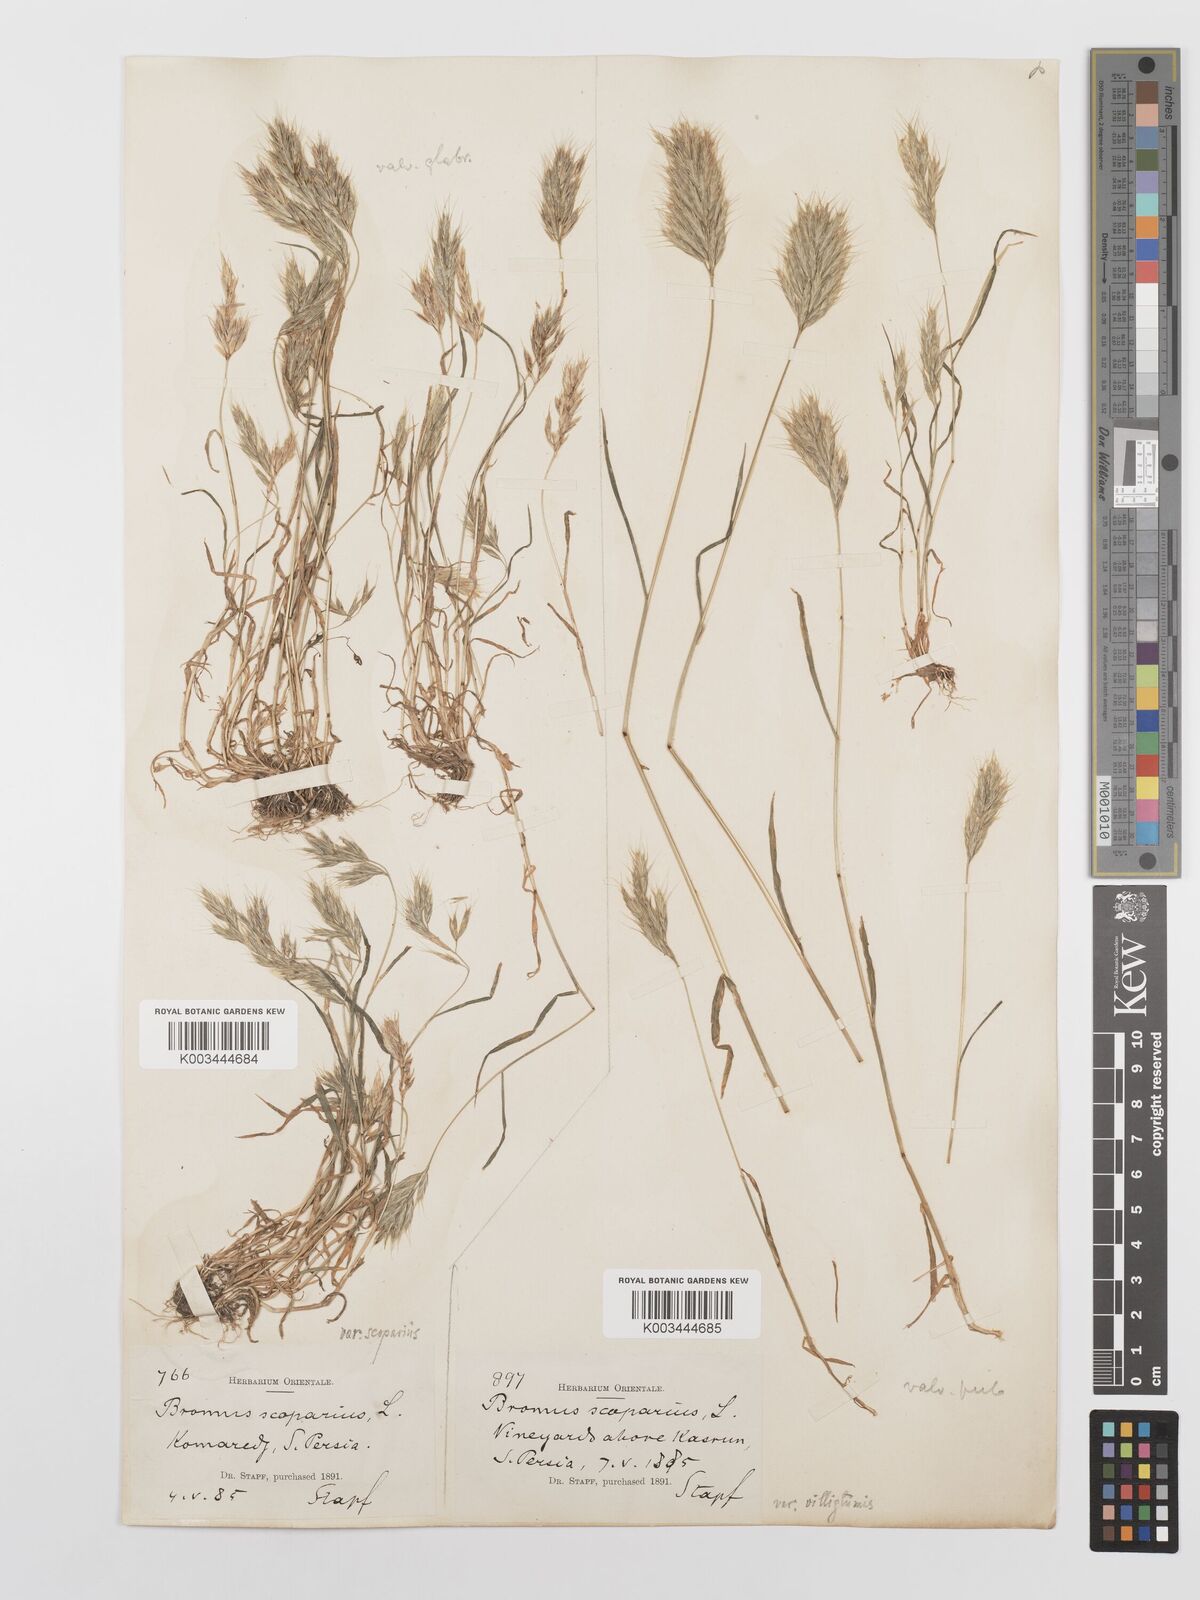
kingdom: Plantae
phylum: Tracheophyta
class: Liliopsida
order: Poales
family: Poaceae
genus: Bromus
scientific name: Bromus scoparius
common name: Broom brome
